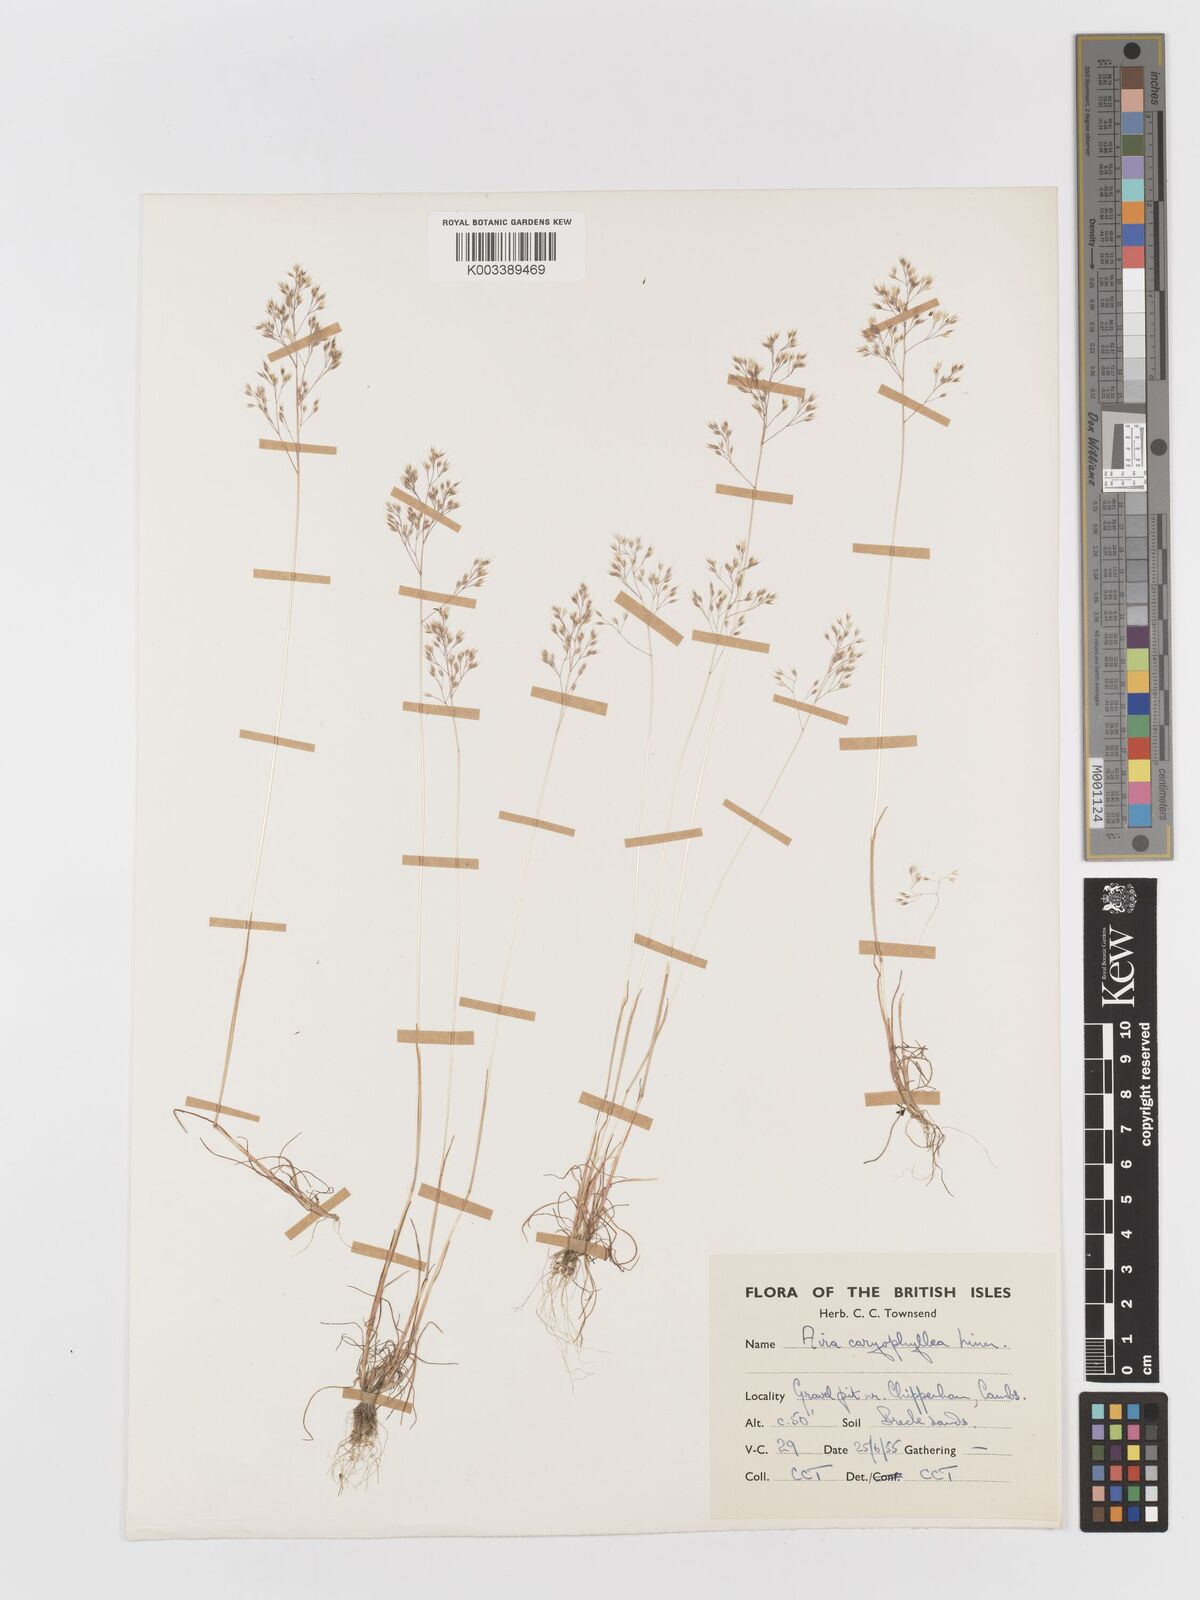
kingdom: Plantae
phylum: Tracheophyta
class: Liliopsida
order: Poales
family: Poaceae
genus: Aira
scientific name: Aira caryophyllea
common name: Silver hairgrass
